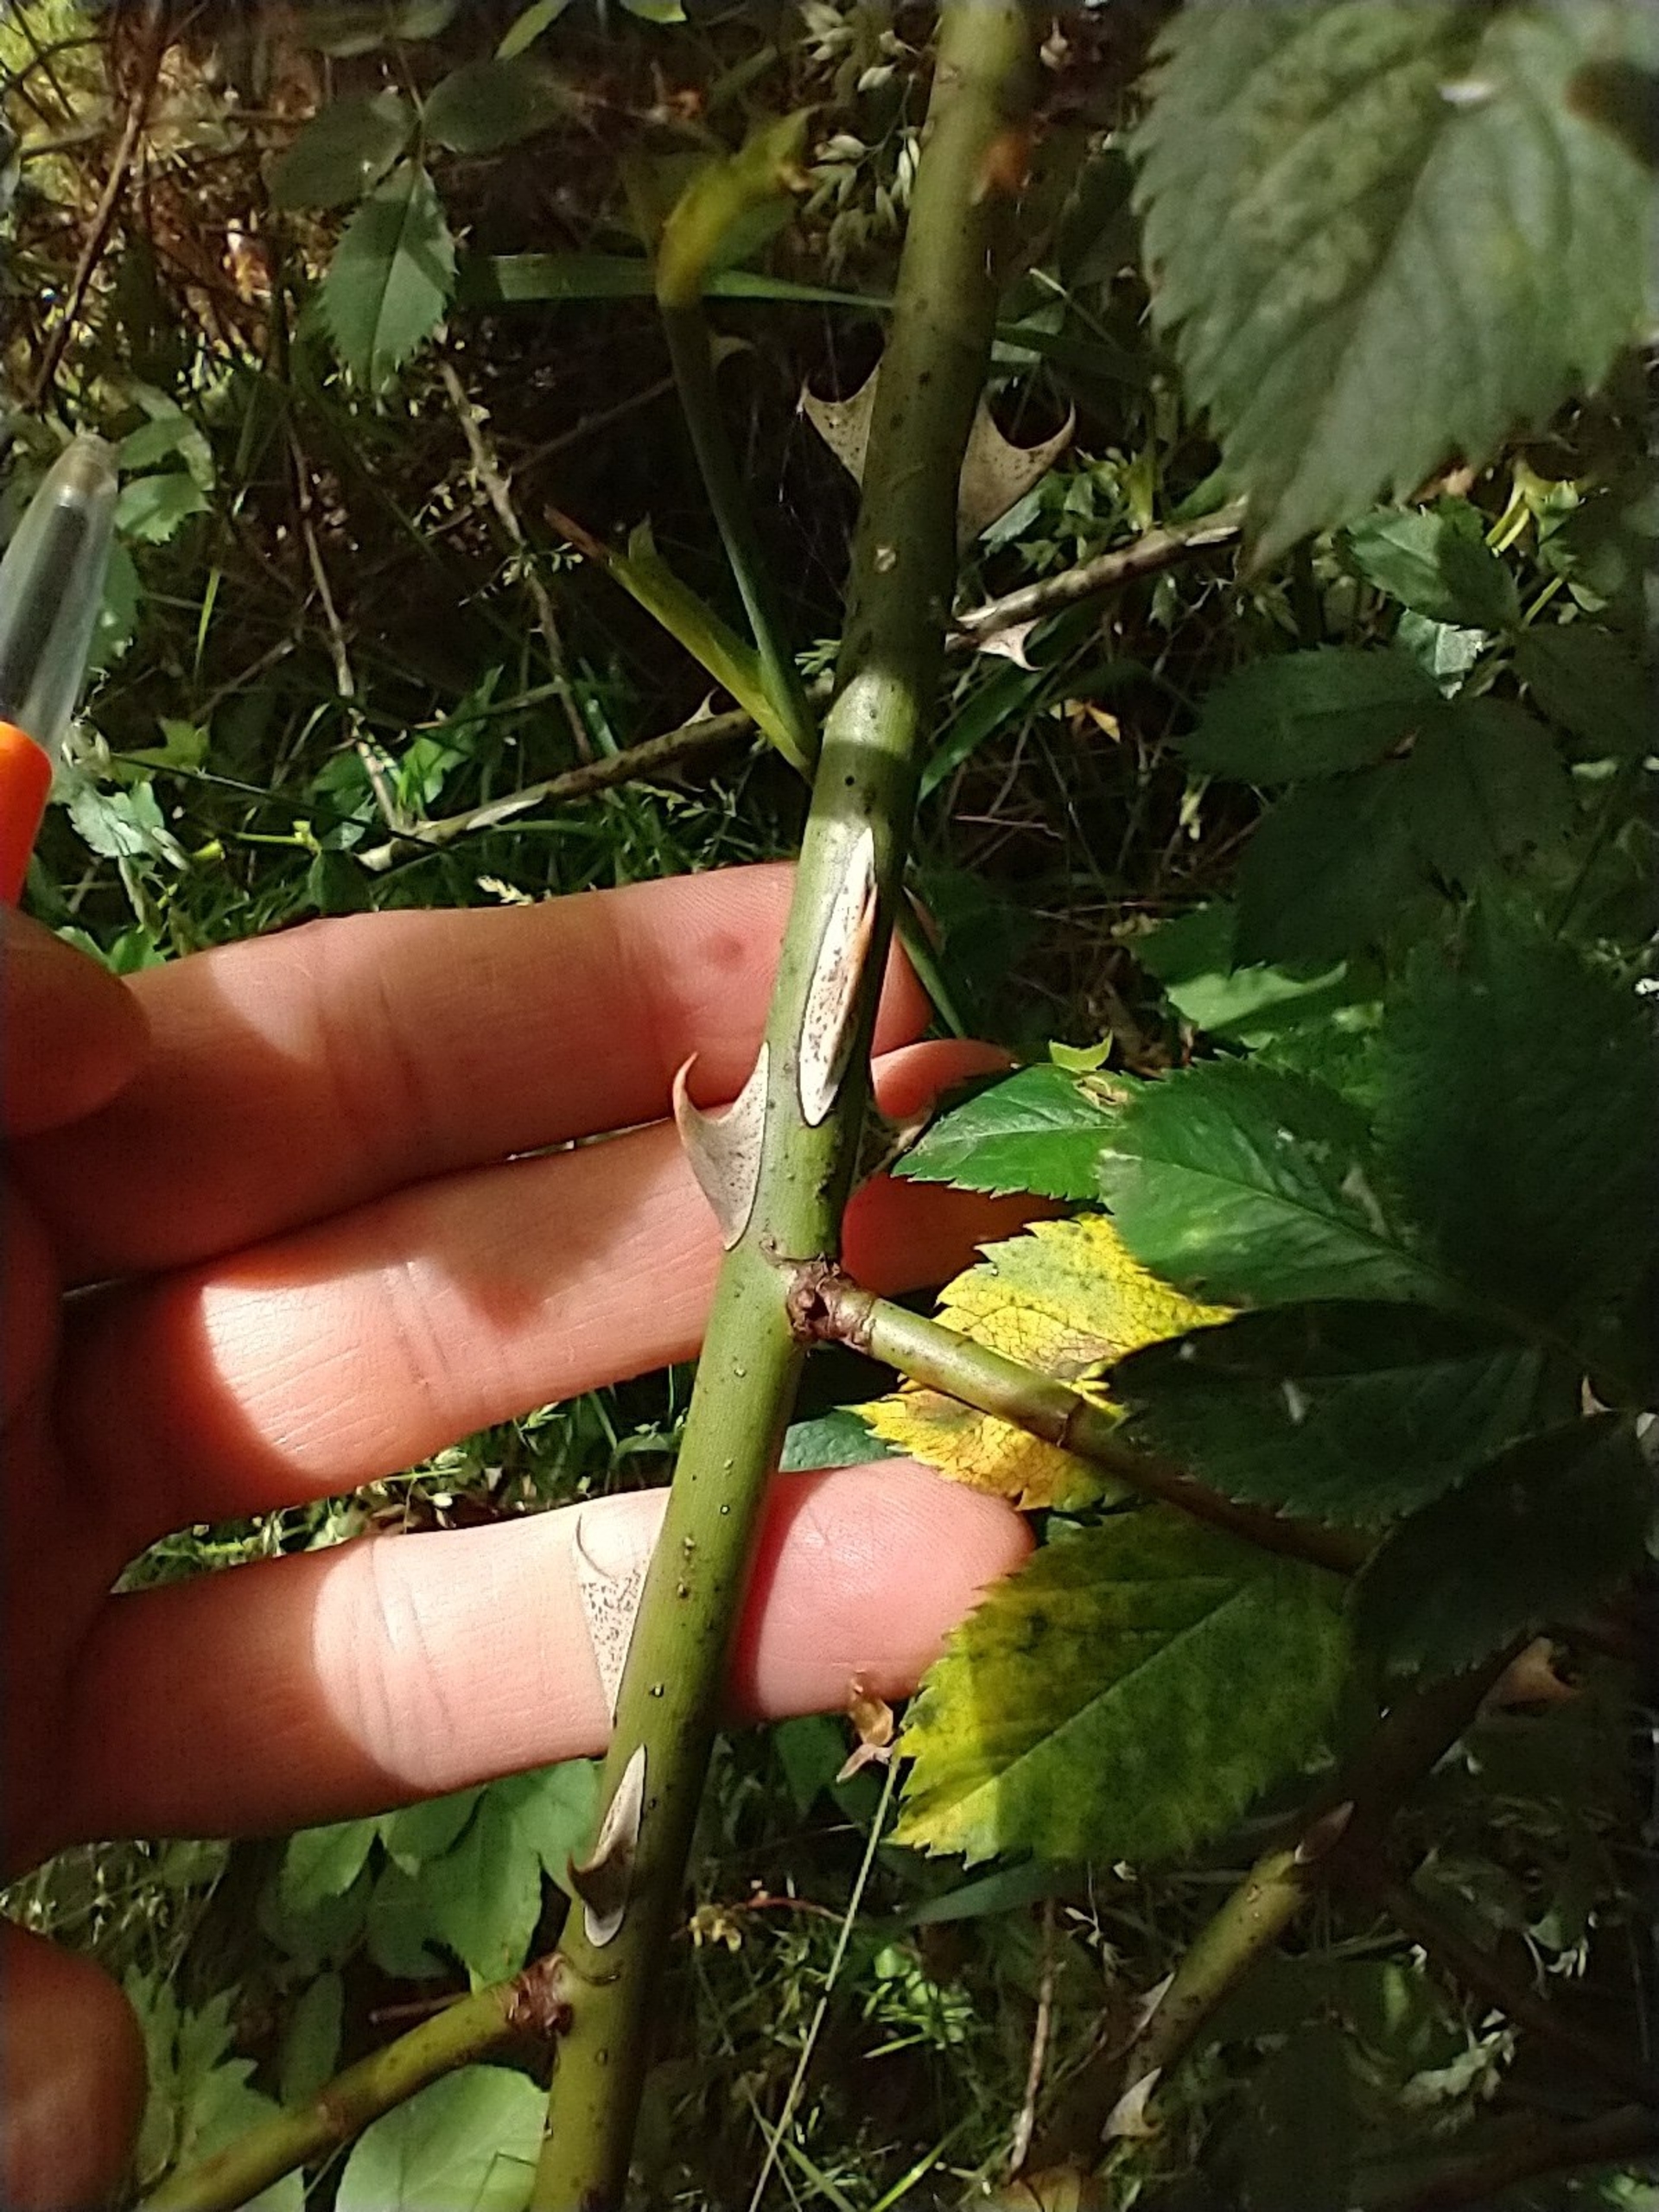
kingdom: Plantae
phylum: Tracheophyta
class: Magnoliopsida
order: Rosales
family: Rosaceae
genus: Rosa
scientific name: Rosa balsamica
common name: Rubladet rose
